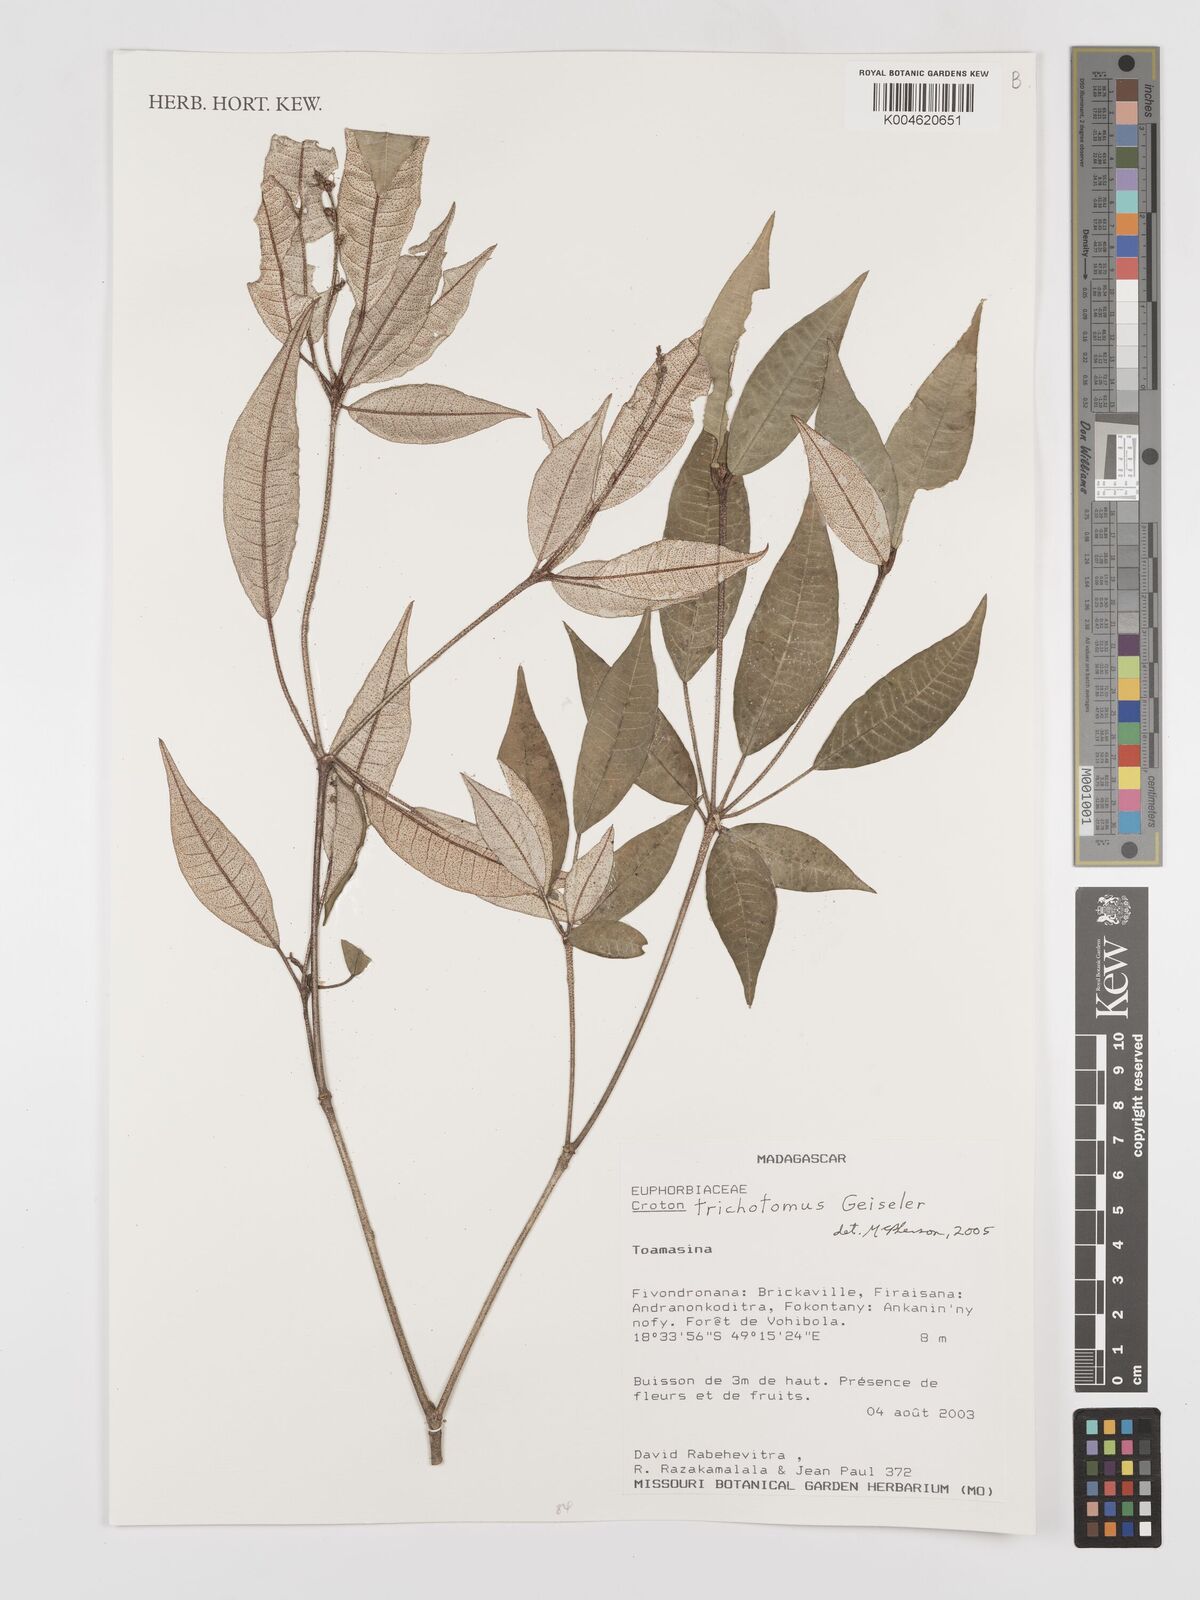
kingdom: Plantae
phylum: Tracheophyta
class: Magnoliopsida
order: Malpighiales
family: Euphorbiaceae
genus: Croton
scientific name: Croton trichotomus
